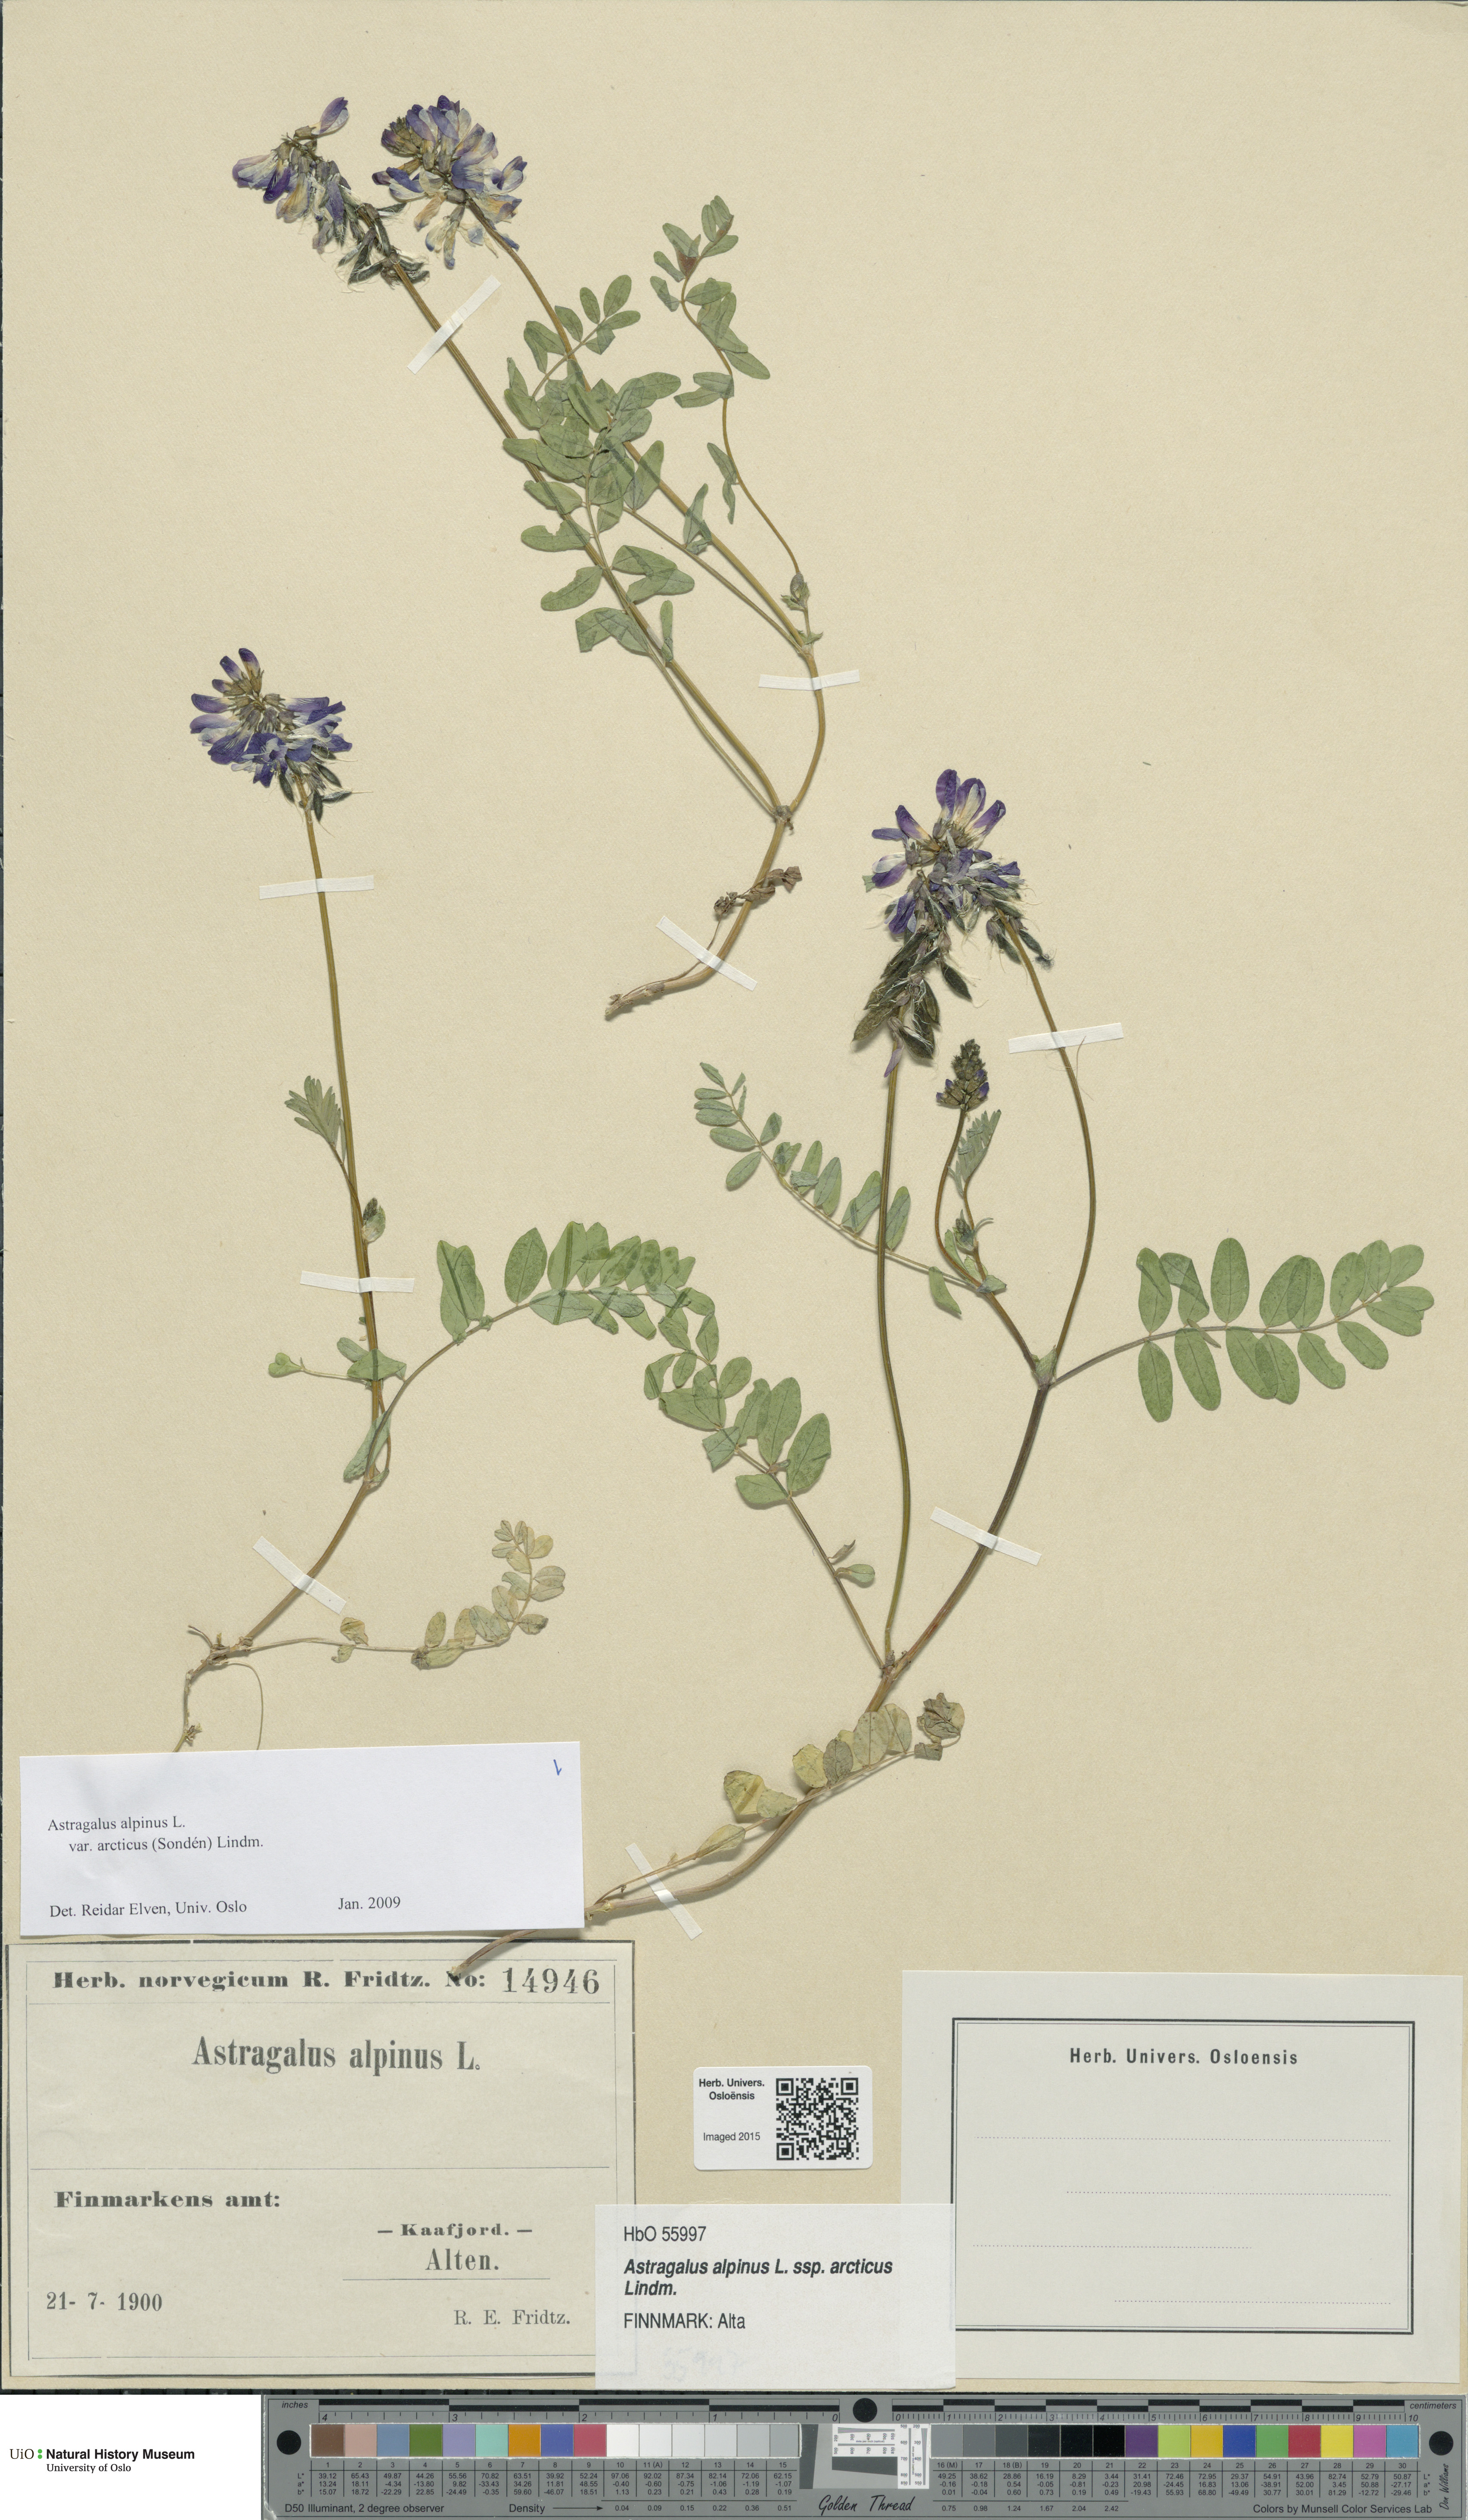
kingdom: Plantae
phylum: Tracheophyta
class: Magnoliopsida
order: Fabales
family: Fabaceae
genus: Astragalus
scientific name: Astragalus norvegicus
